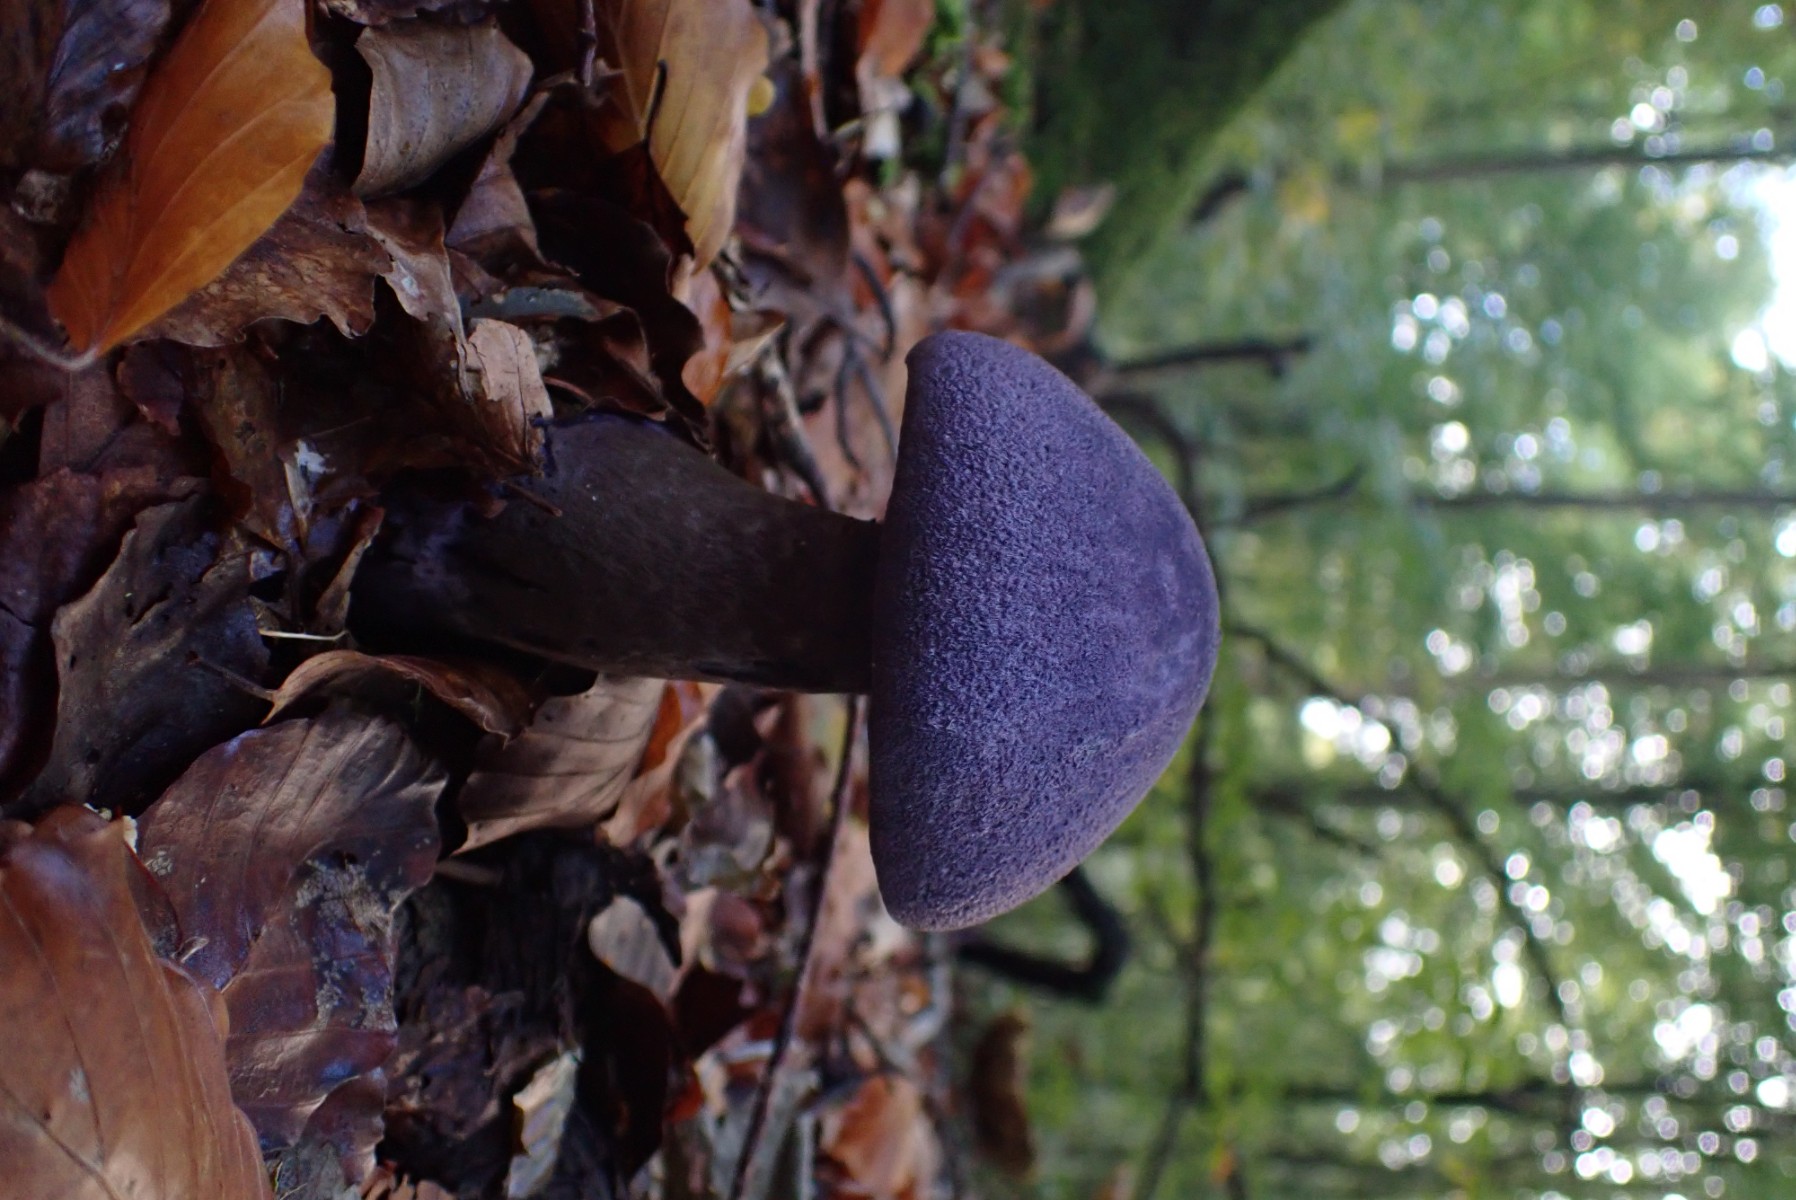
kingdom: Fungi
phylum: Basidiomycota
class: Agaricomycetes
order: Agaricales
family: Cortinariaceae
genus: Cortinarius
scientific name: Cortinarius violaceus
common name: mørkviolet slørhat
